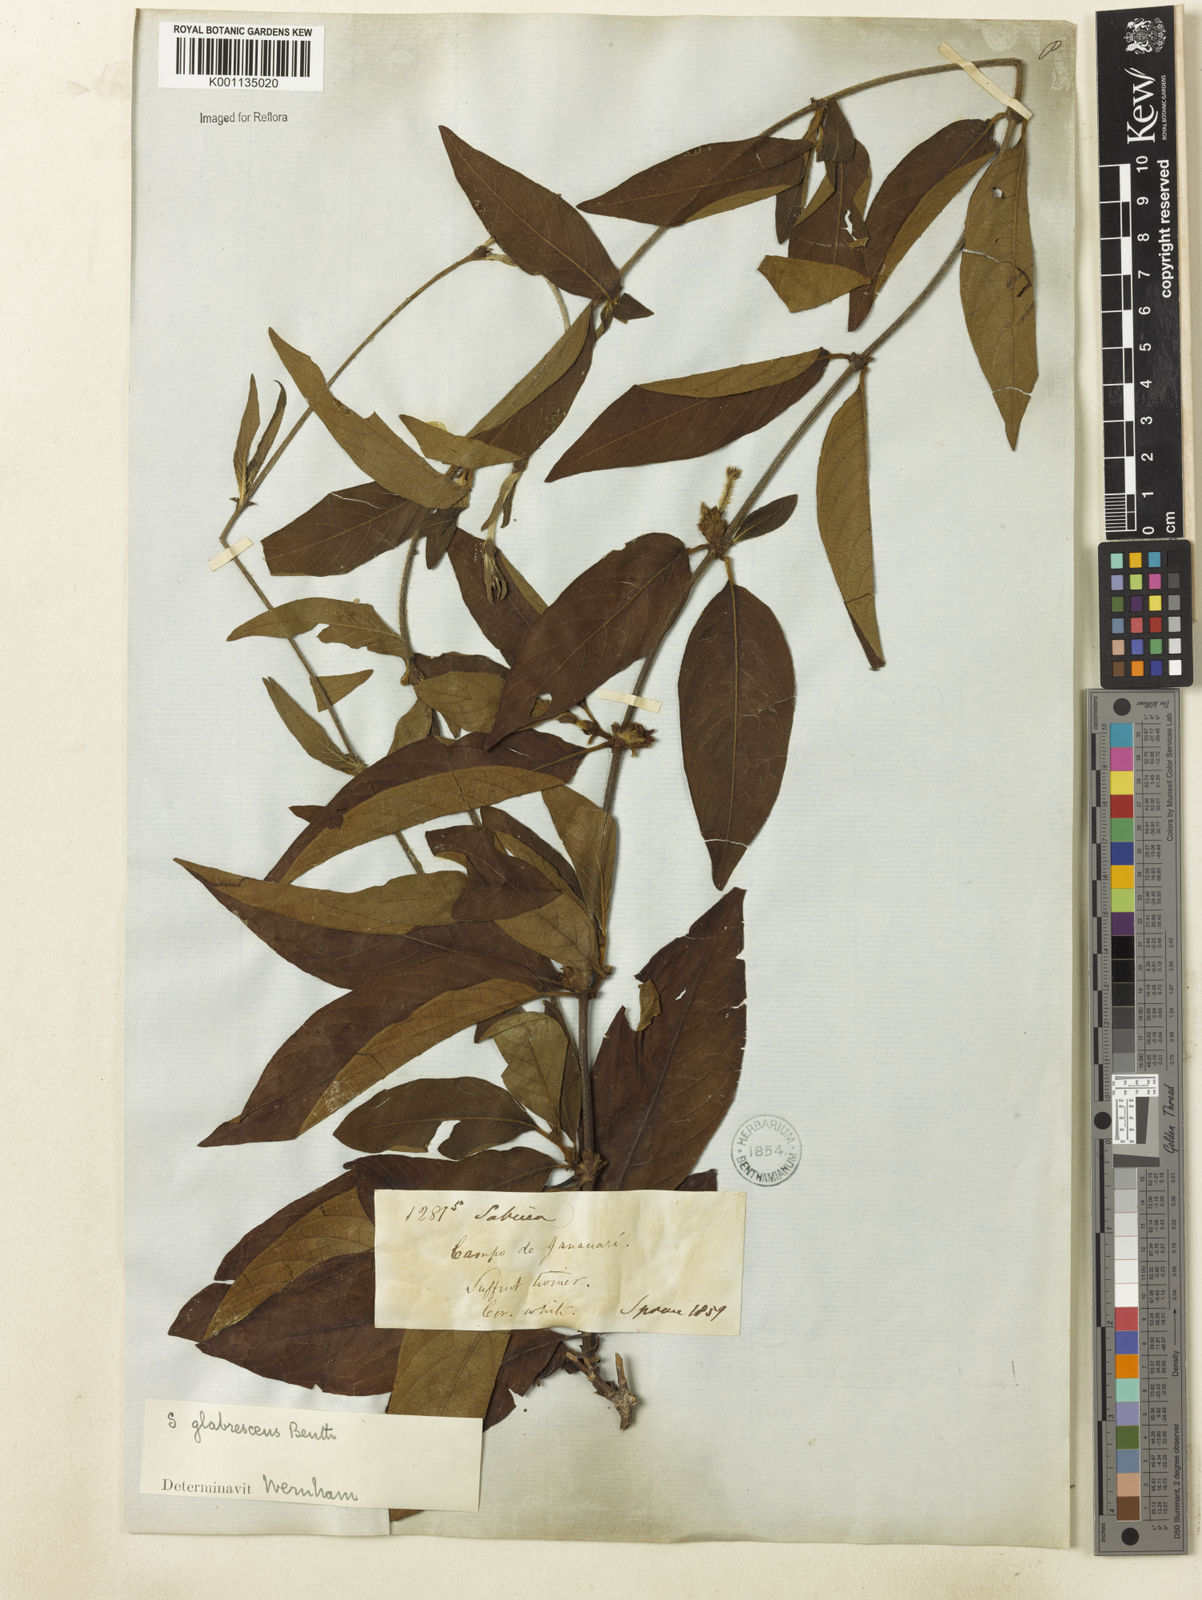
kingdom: Plantae
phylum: Tracheophyta
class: Magnoliopsida
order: Gentianales
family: Rubiaceae
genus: Sabicea
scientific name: Sabicea glabrescens
